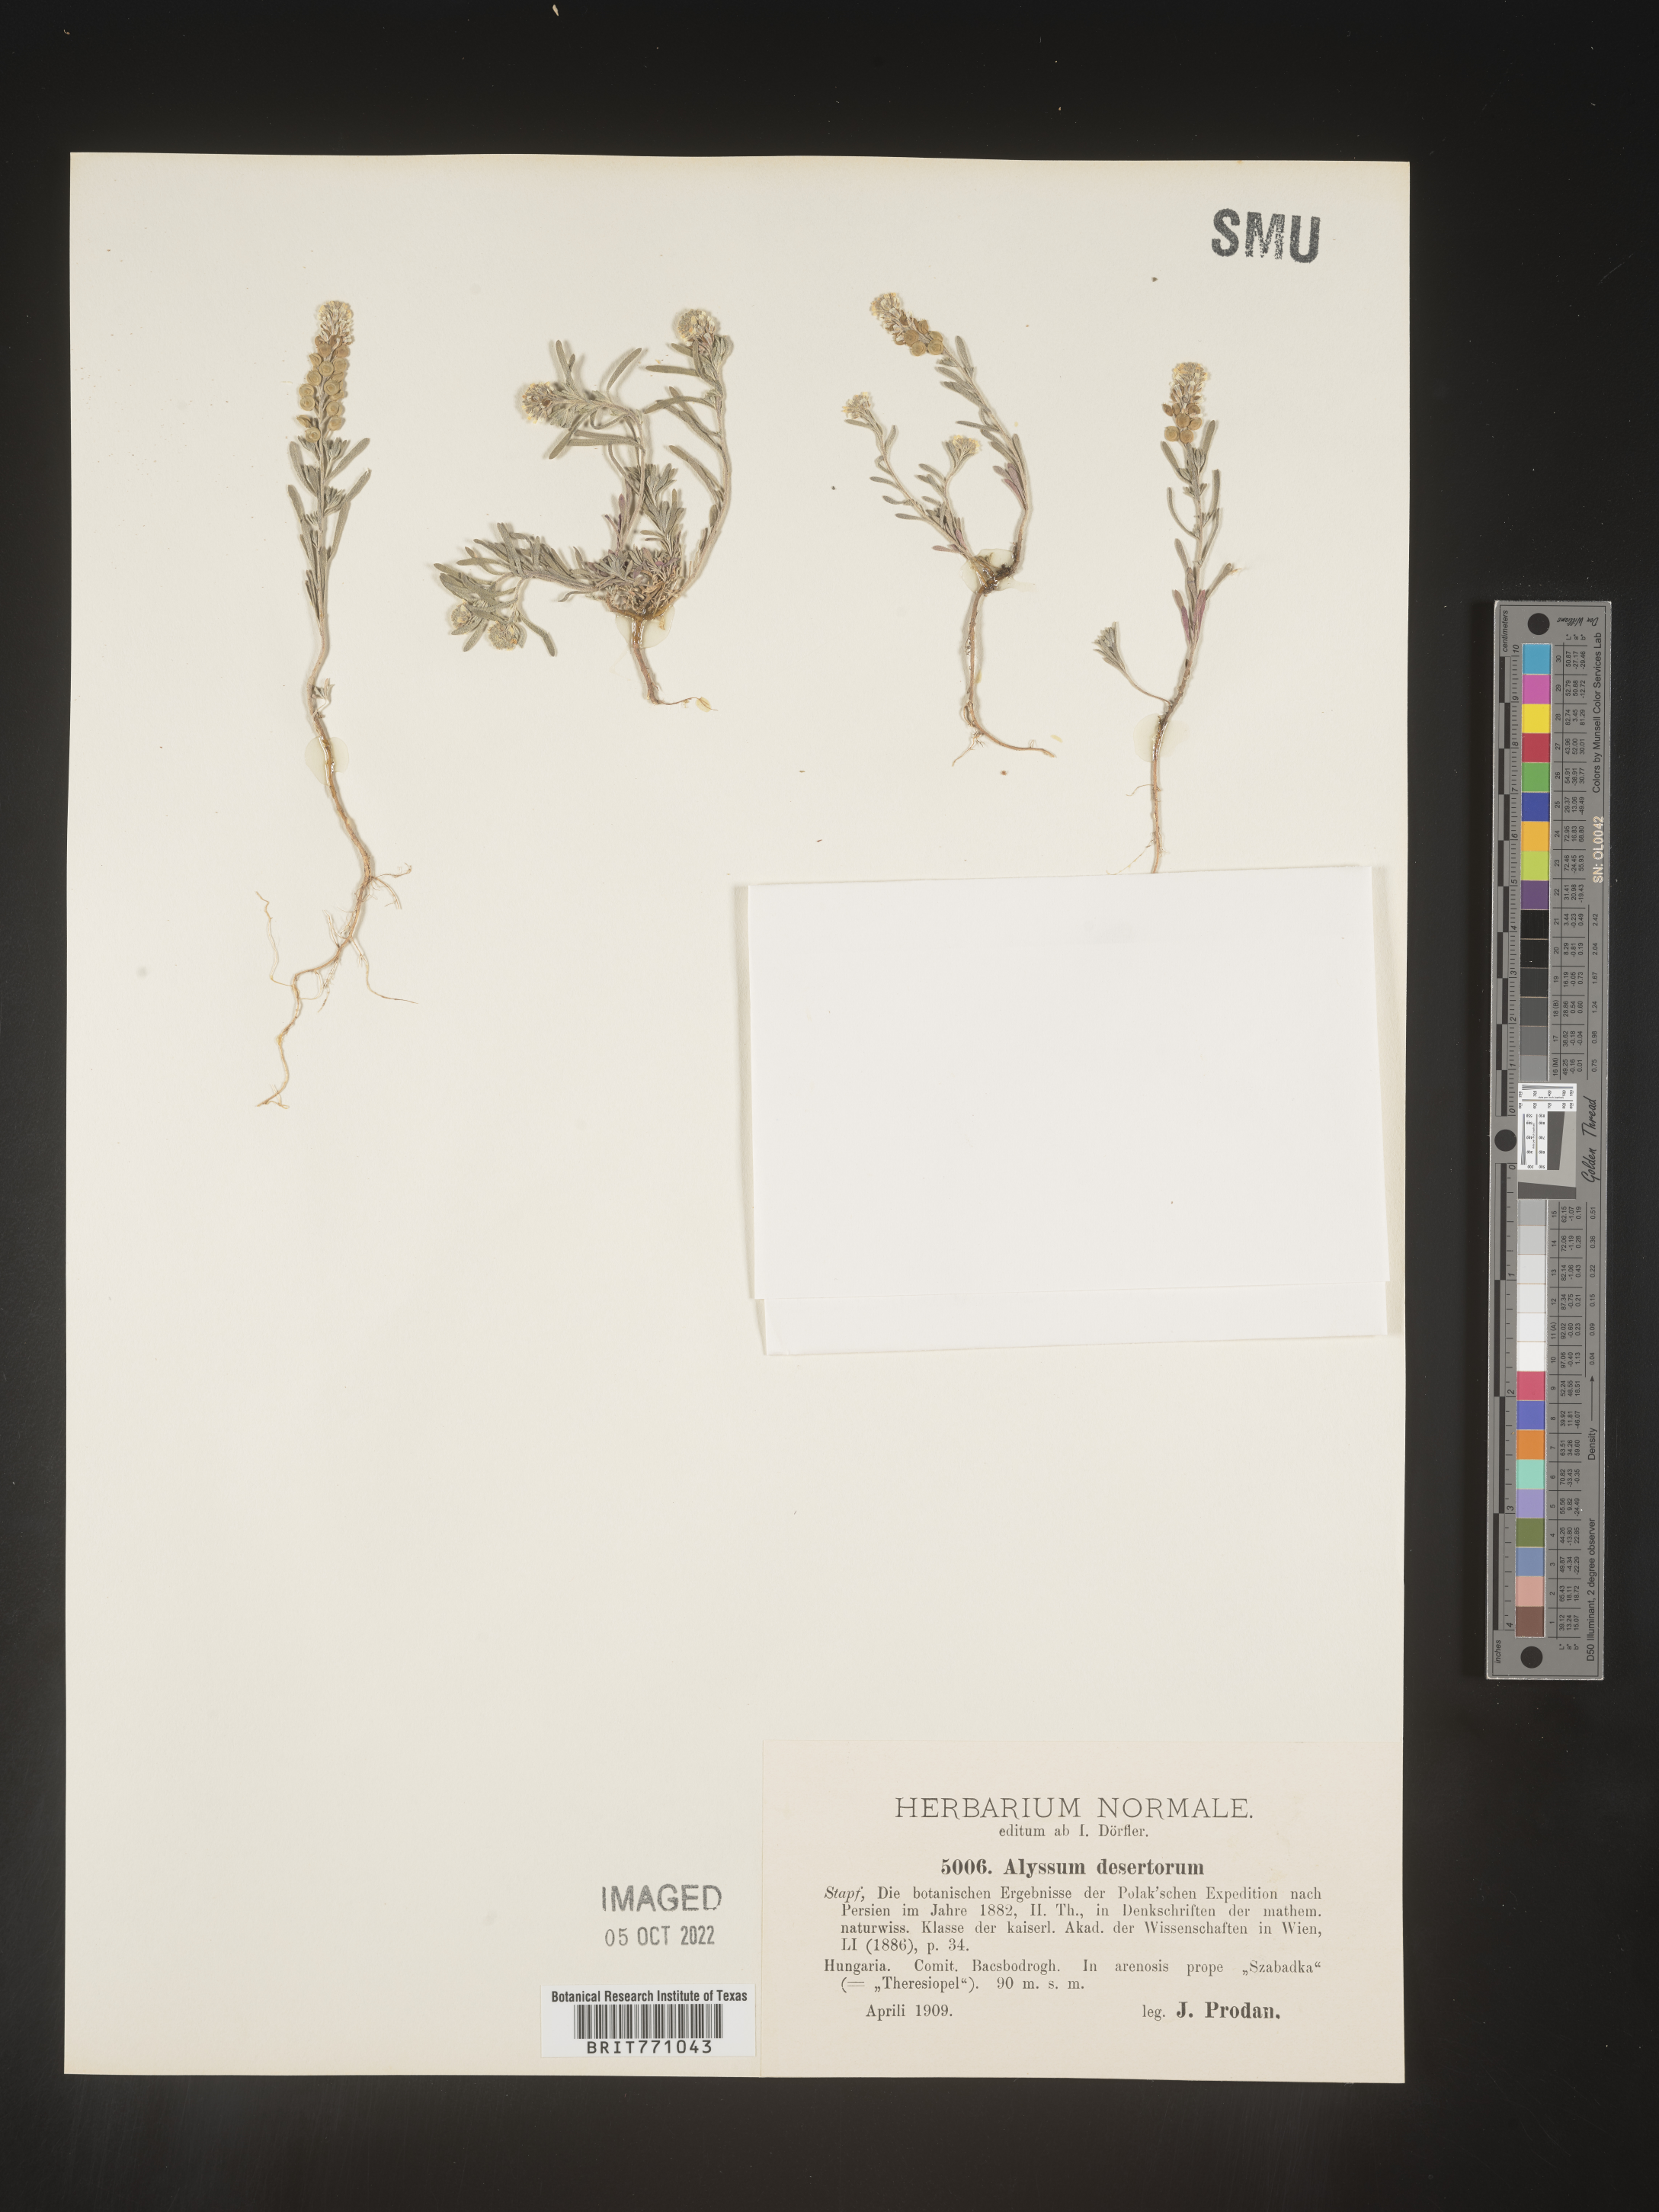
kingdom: Plantae
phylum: Tracheophyta
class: Magnoliopsida
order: Brassicales
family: Brassicaceae
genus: Alyssum
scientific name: Alyssum
